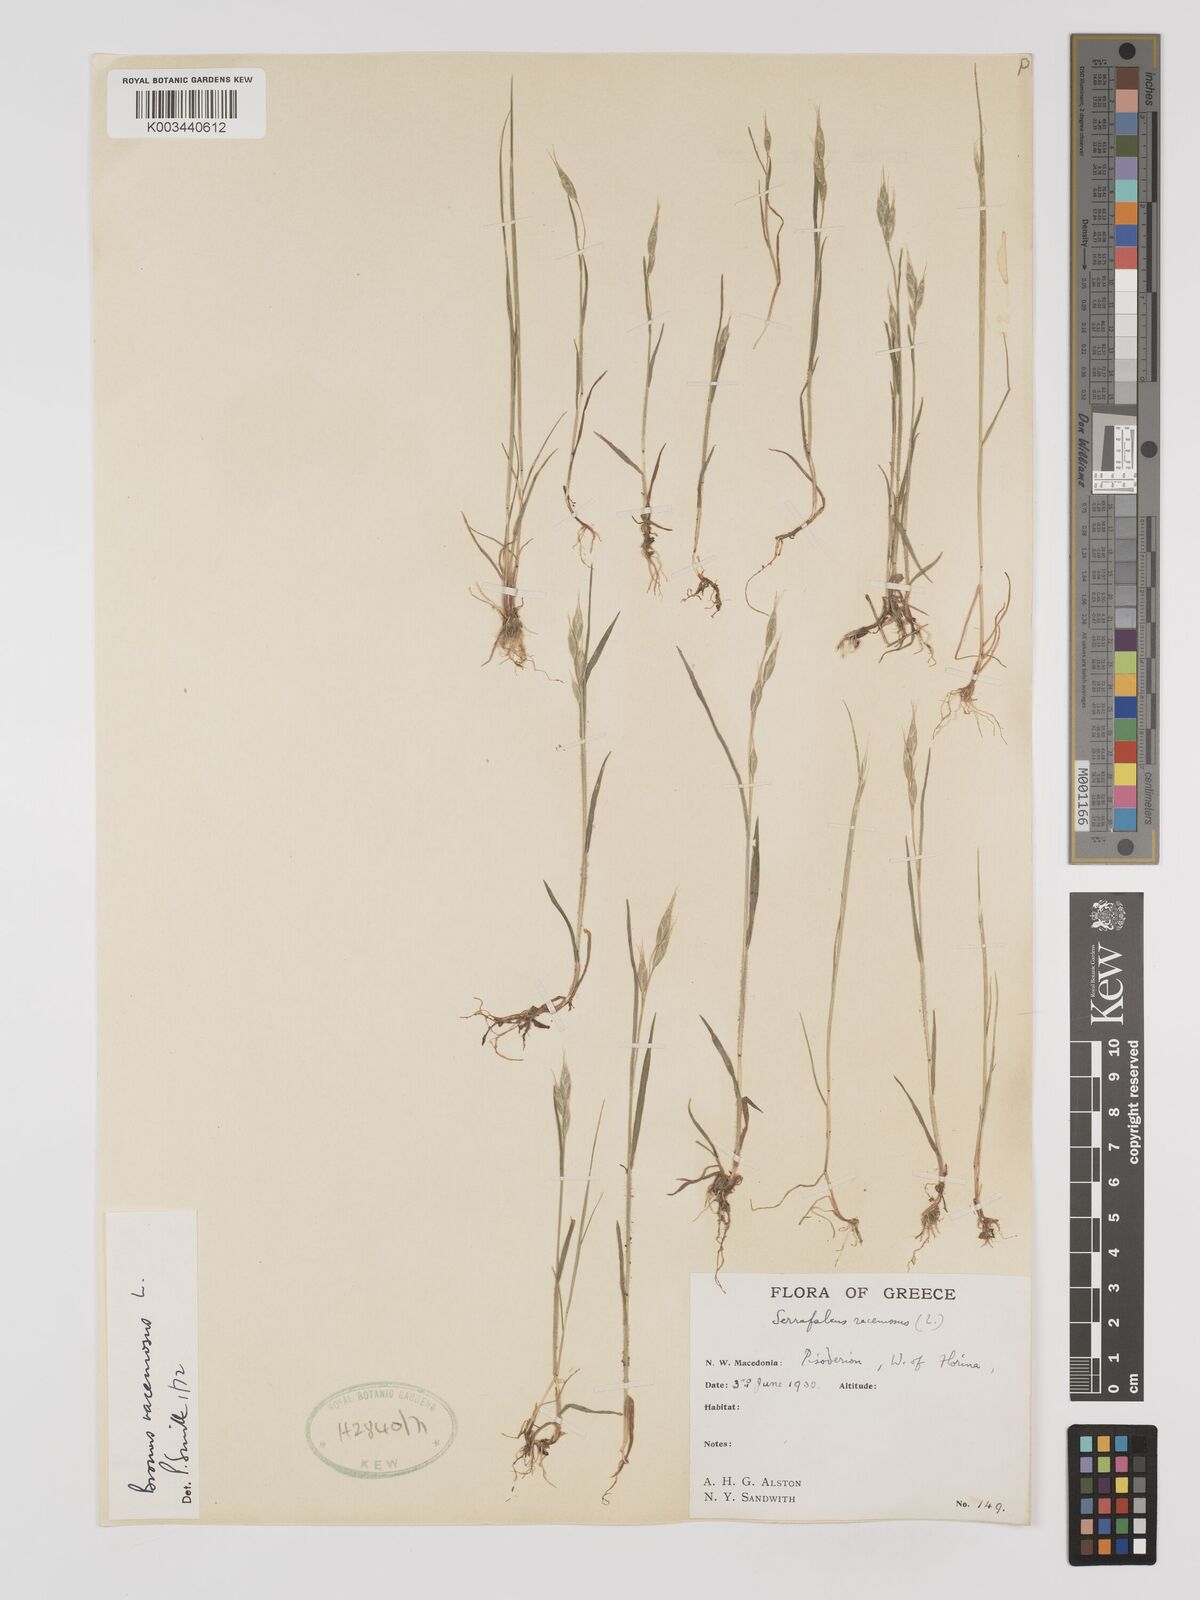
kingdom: Plantae
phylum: Tracheophyta
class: Liliopsida
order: Poales
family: Poaceae
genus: Bromus
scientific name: Bromus racemosus
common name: Bald brome
